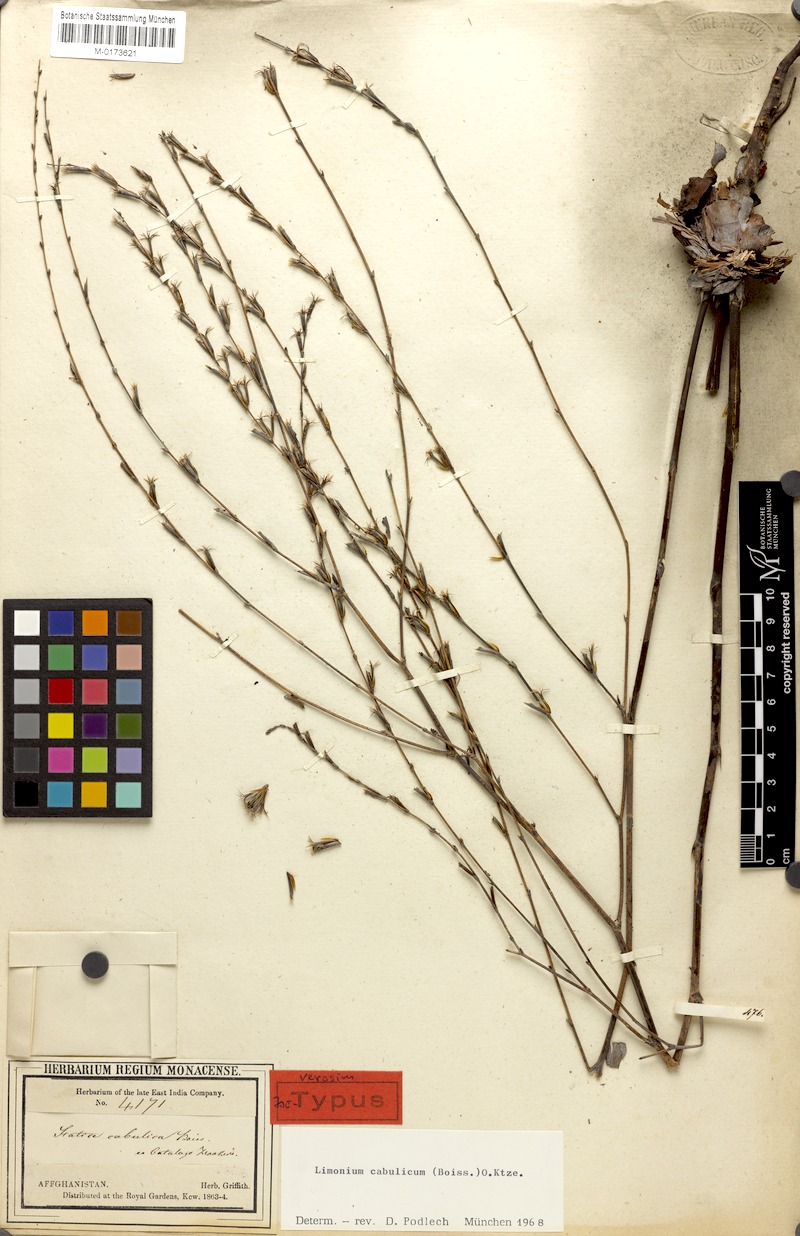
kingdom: Plantae
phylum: Tracheophyta
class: Magnoliopsida
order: Caryophyllales
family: Plumbaginaceae
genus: Bukiniczia
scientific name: Bukiniczia cabulica
